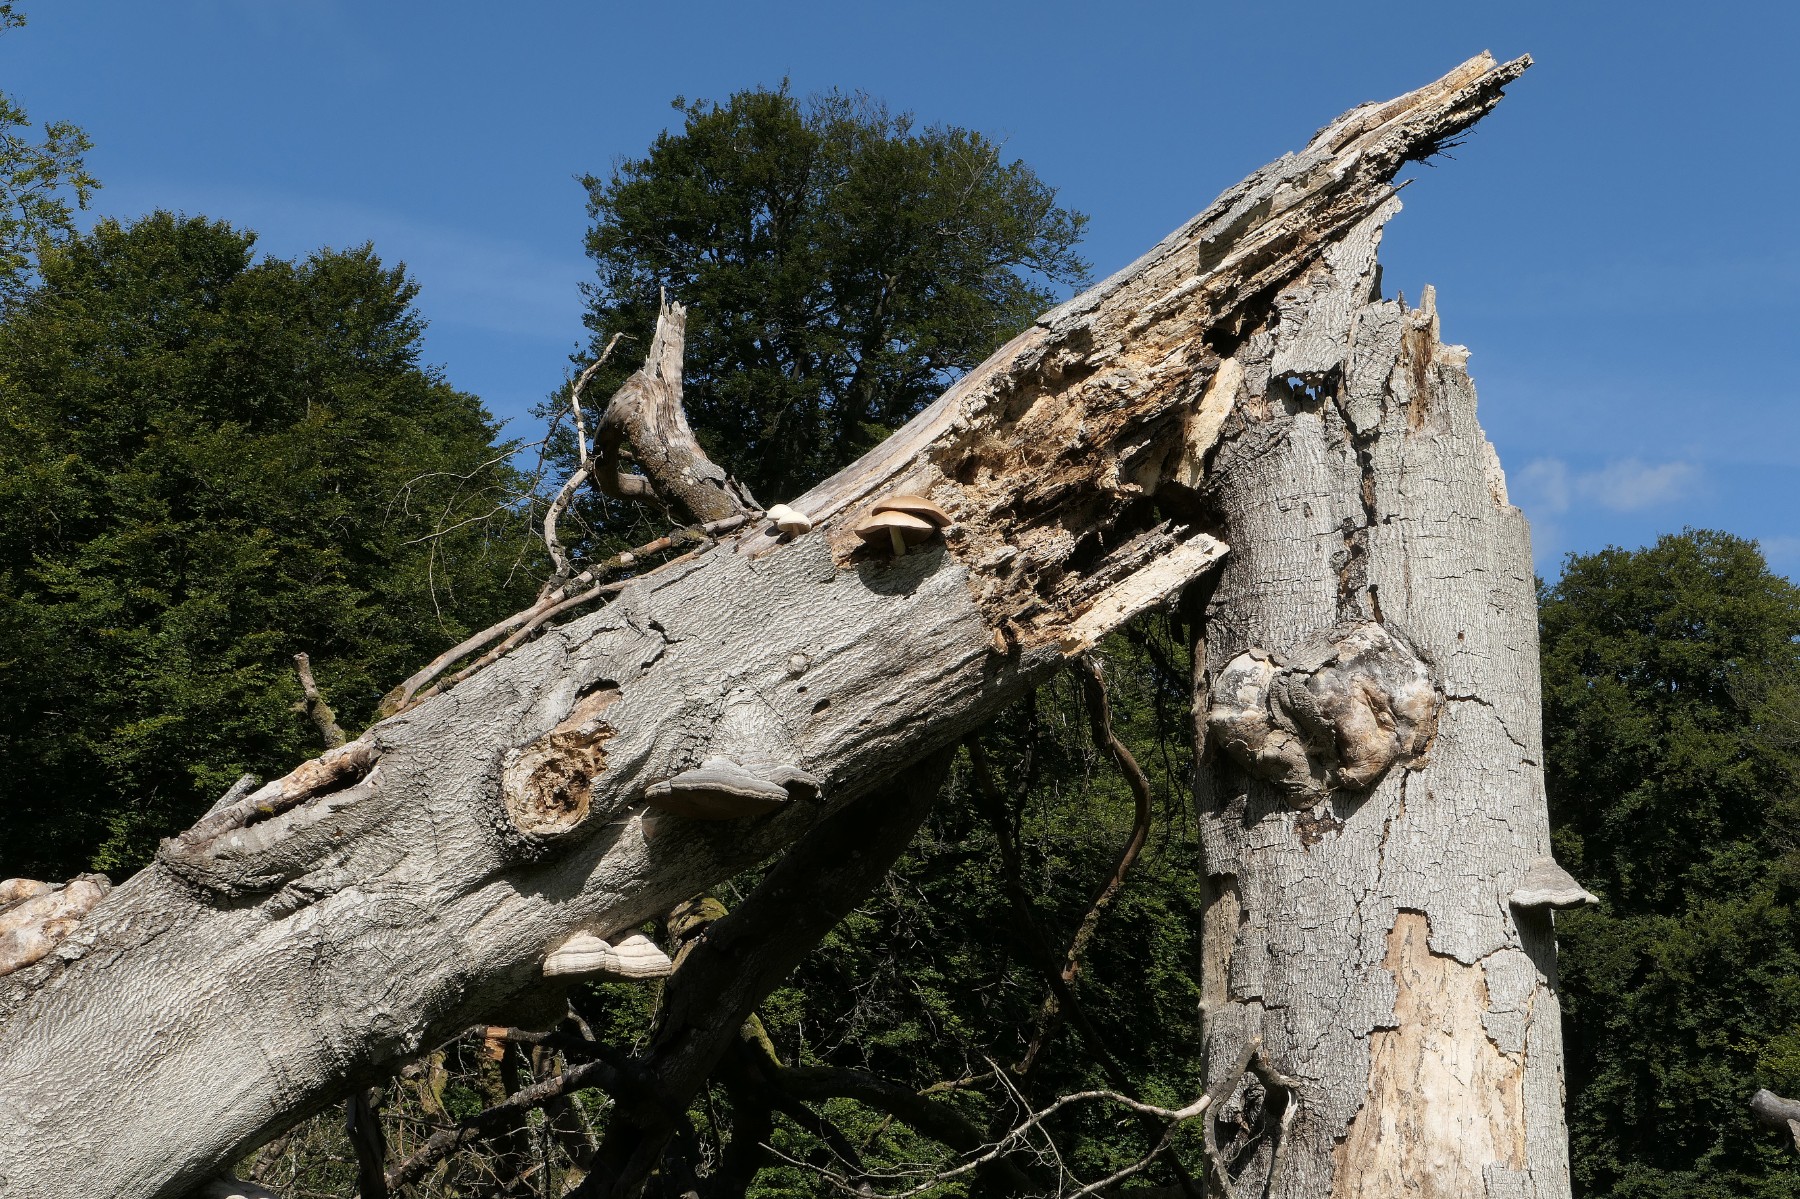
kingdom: Fungi
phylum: Basidiomycota
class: Agaricomycetes
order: Agaricales
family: Pluteaceae
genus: Volvariella
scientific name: Volvariella bombycina
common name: silkehåret posesvamp
